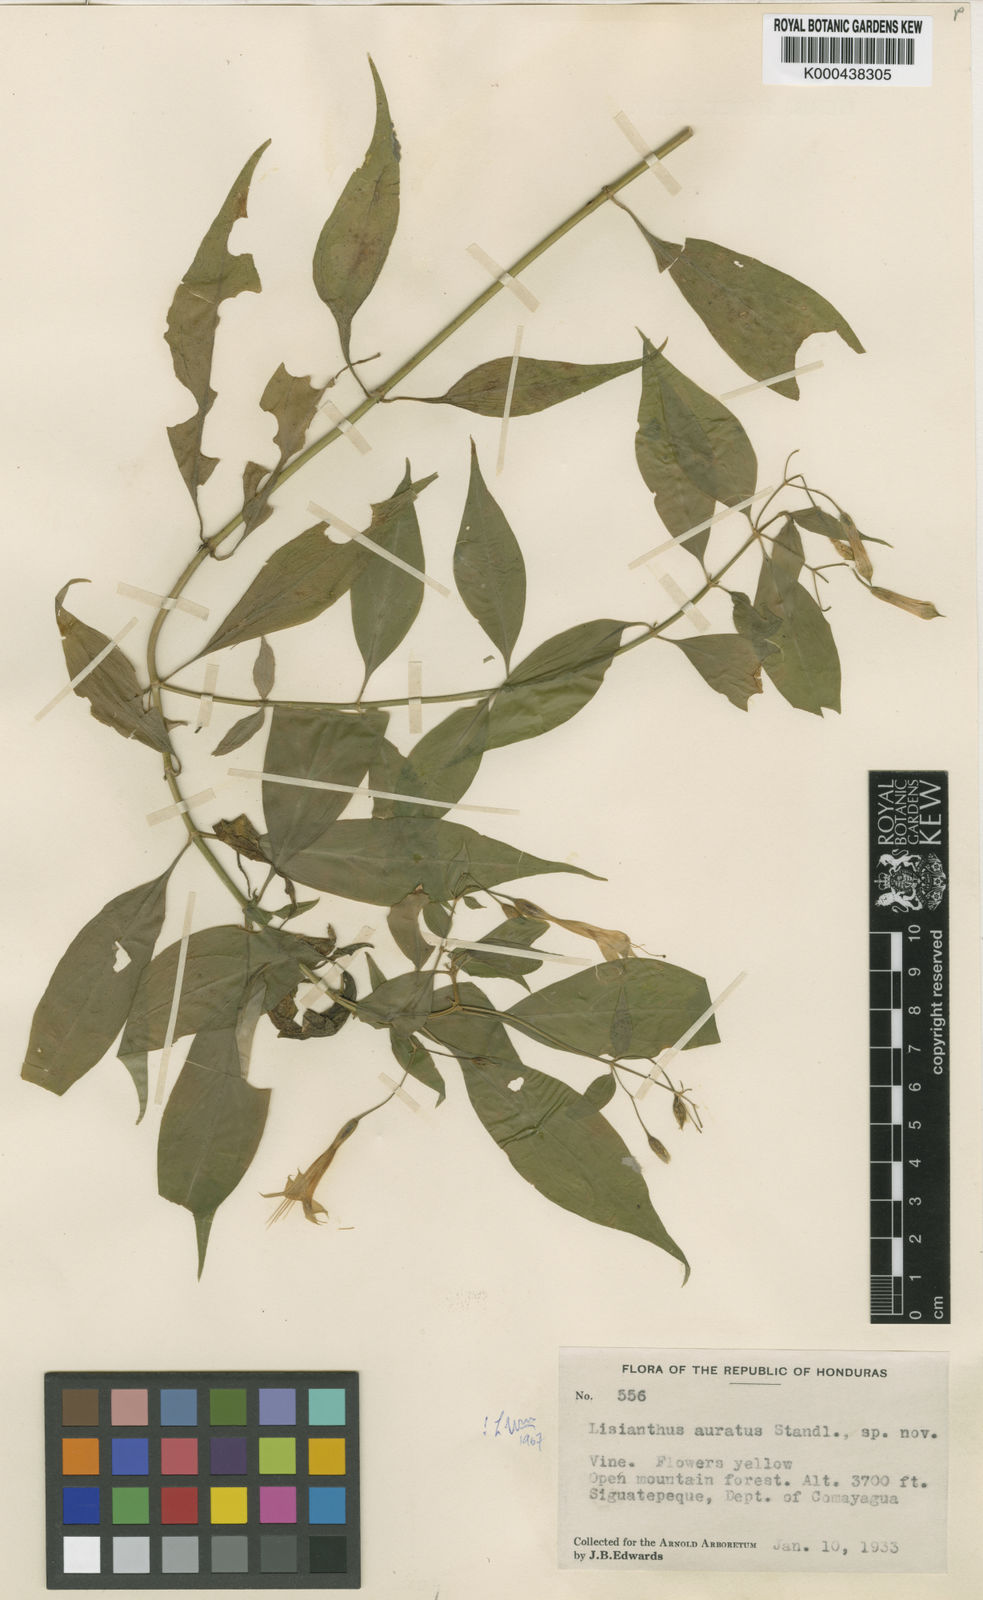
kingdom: Plantae
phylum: Tracheophyta
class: Magnoliopsida
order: Gentianales
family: Gentianaceae
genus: Lisianthius
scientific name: Lisianthius auratus
